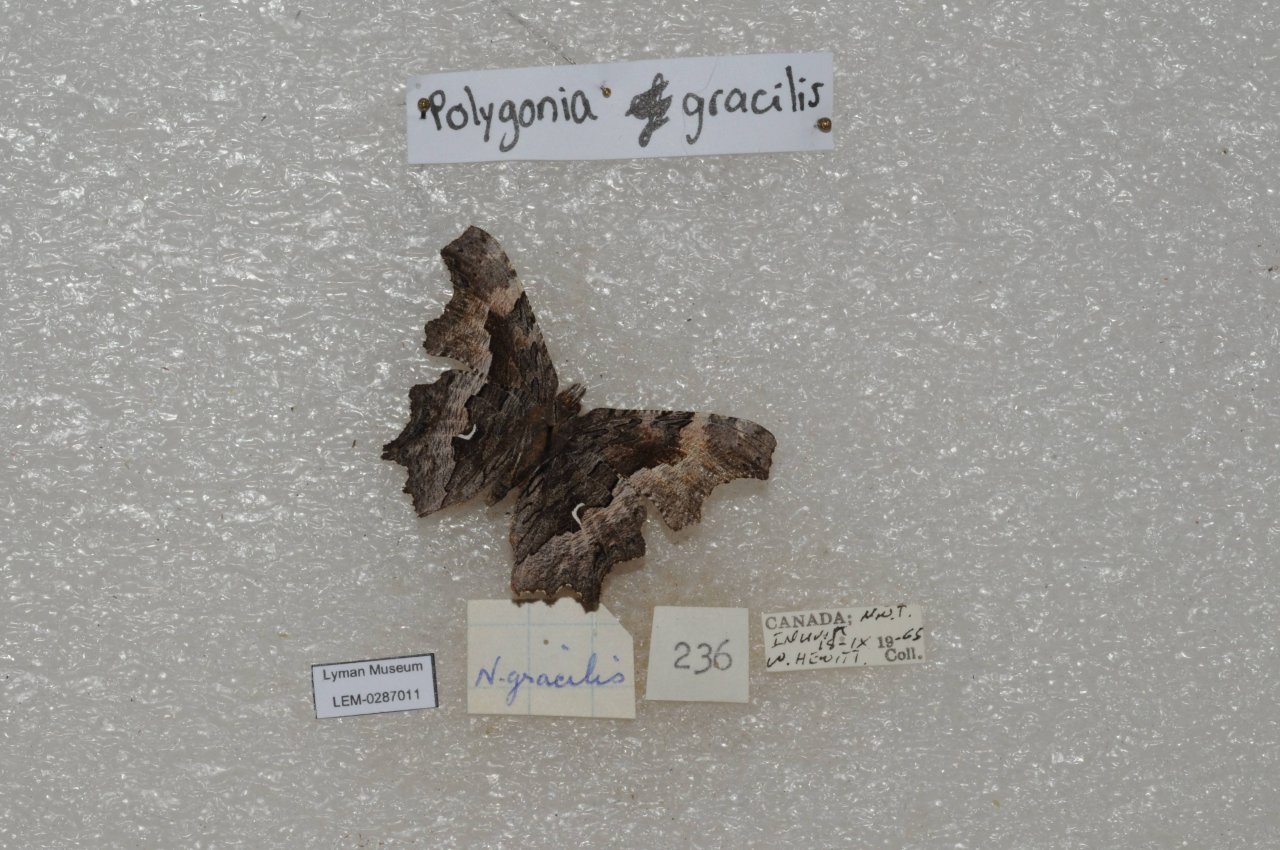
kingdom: Animalia
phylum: Arthropoda
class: Insecta
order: Lepidoptera
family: Nymphalidae
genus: Polygonia
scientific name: Polygonia gracilis
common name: Hoary Comma
